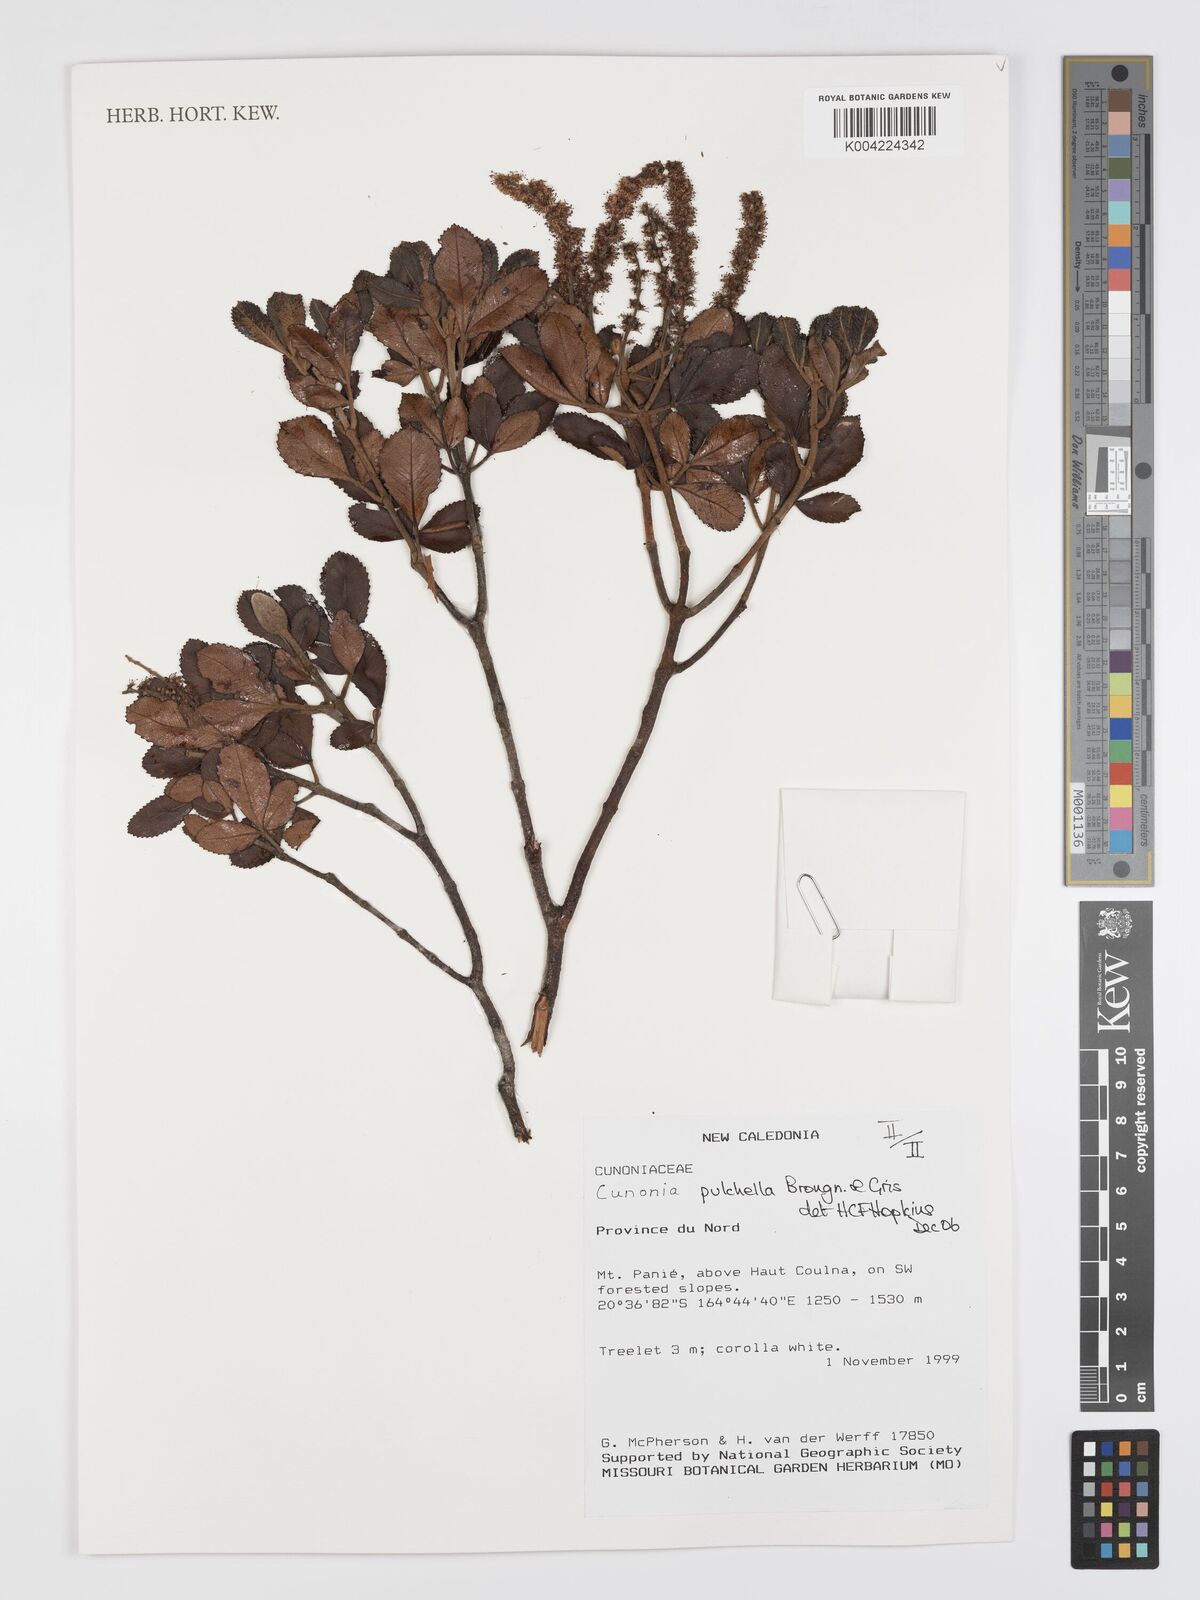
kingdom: Plantae
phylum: Tracheophyta
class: Magnoliopsida
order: Oxalidales
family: Cunoniaceae
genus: Cunonia
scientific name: Cunonia pulchella
